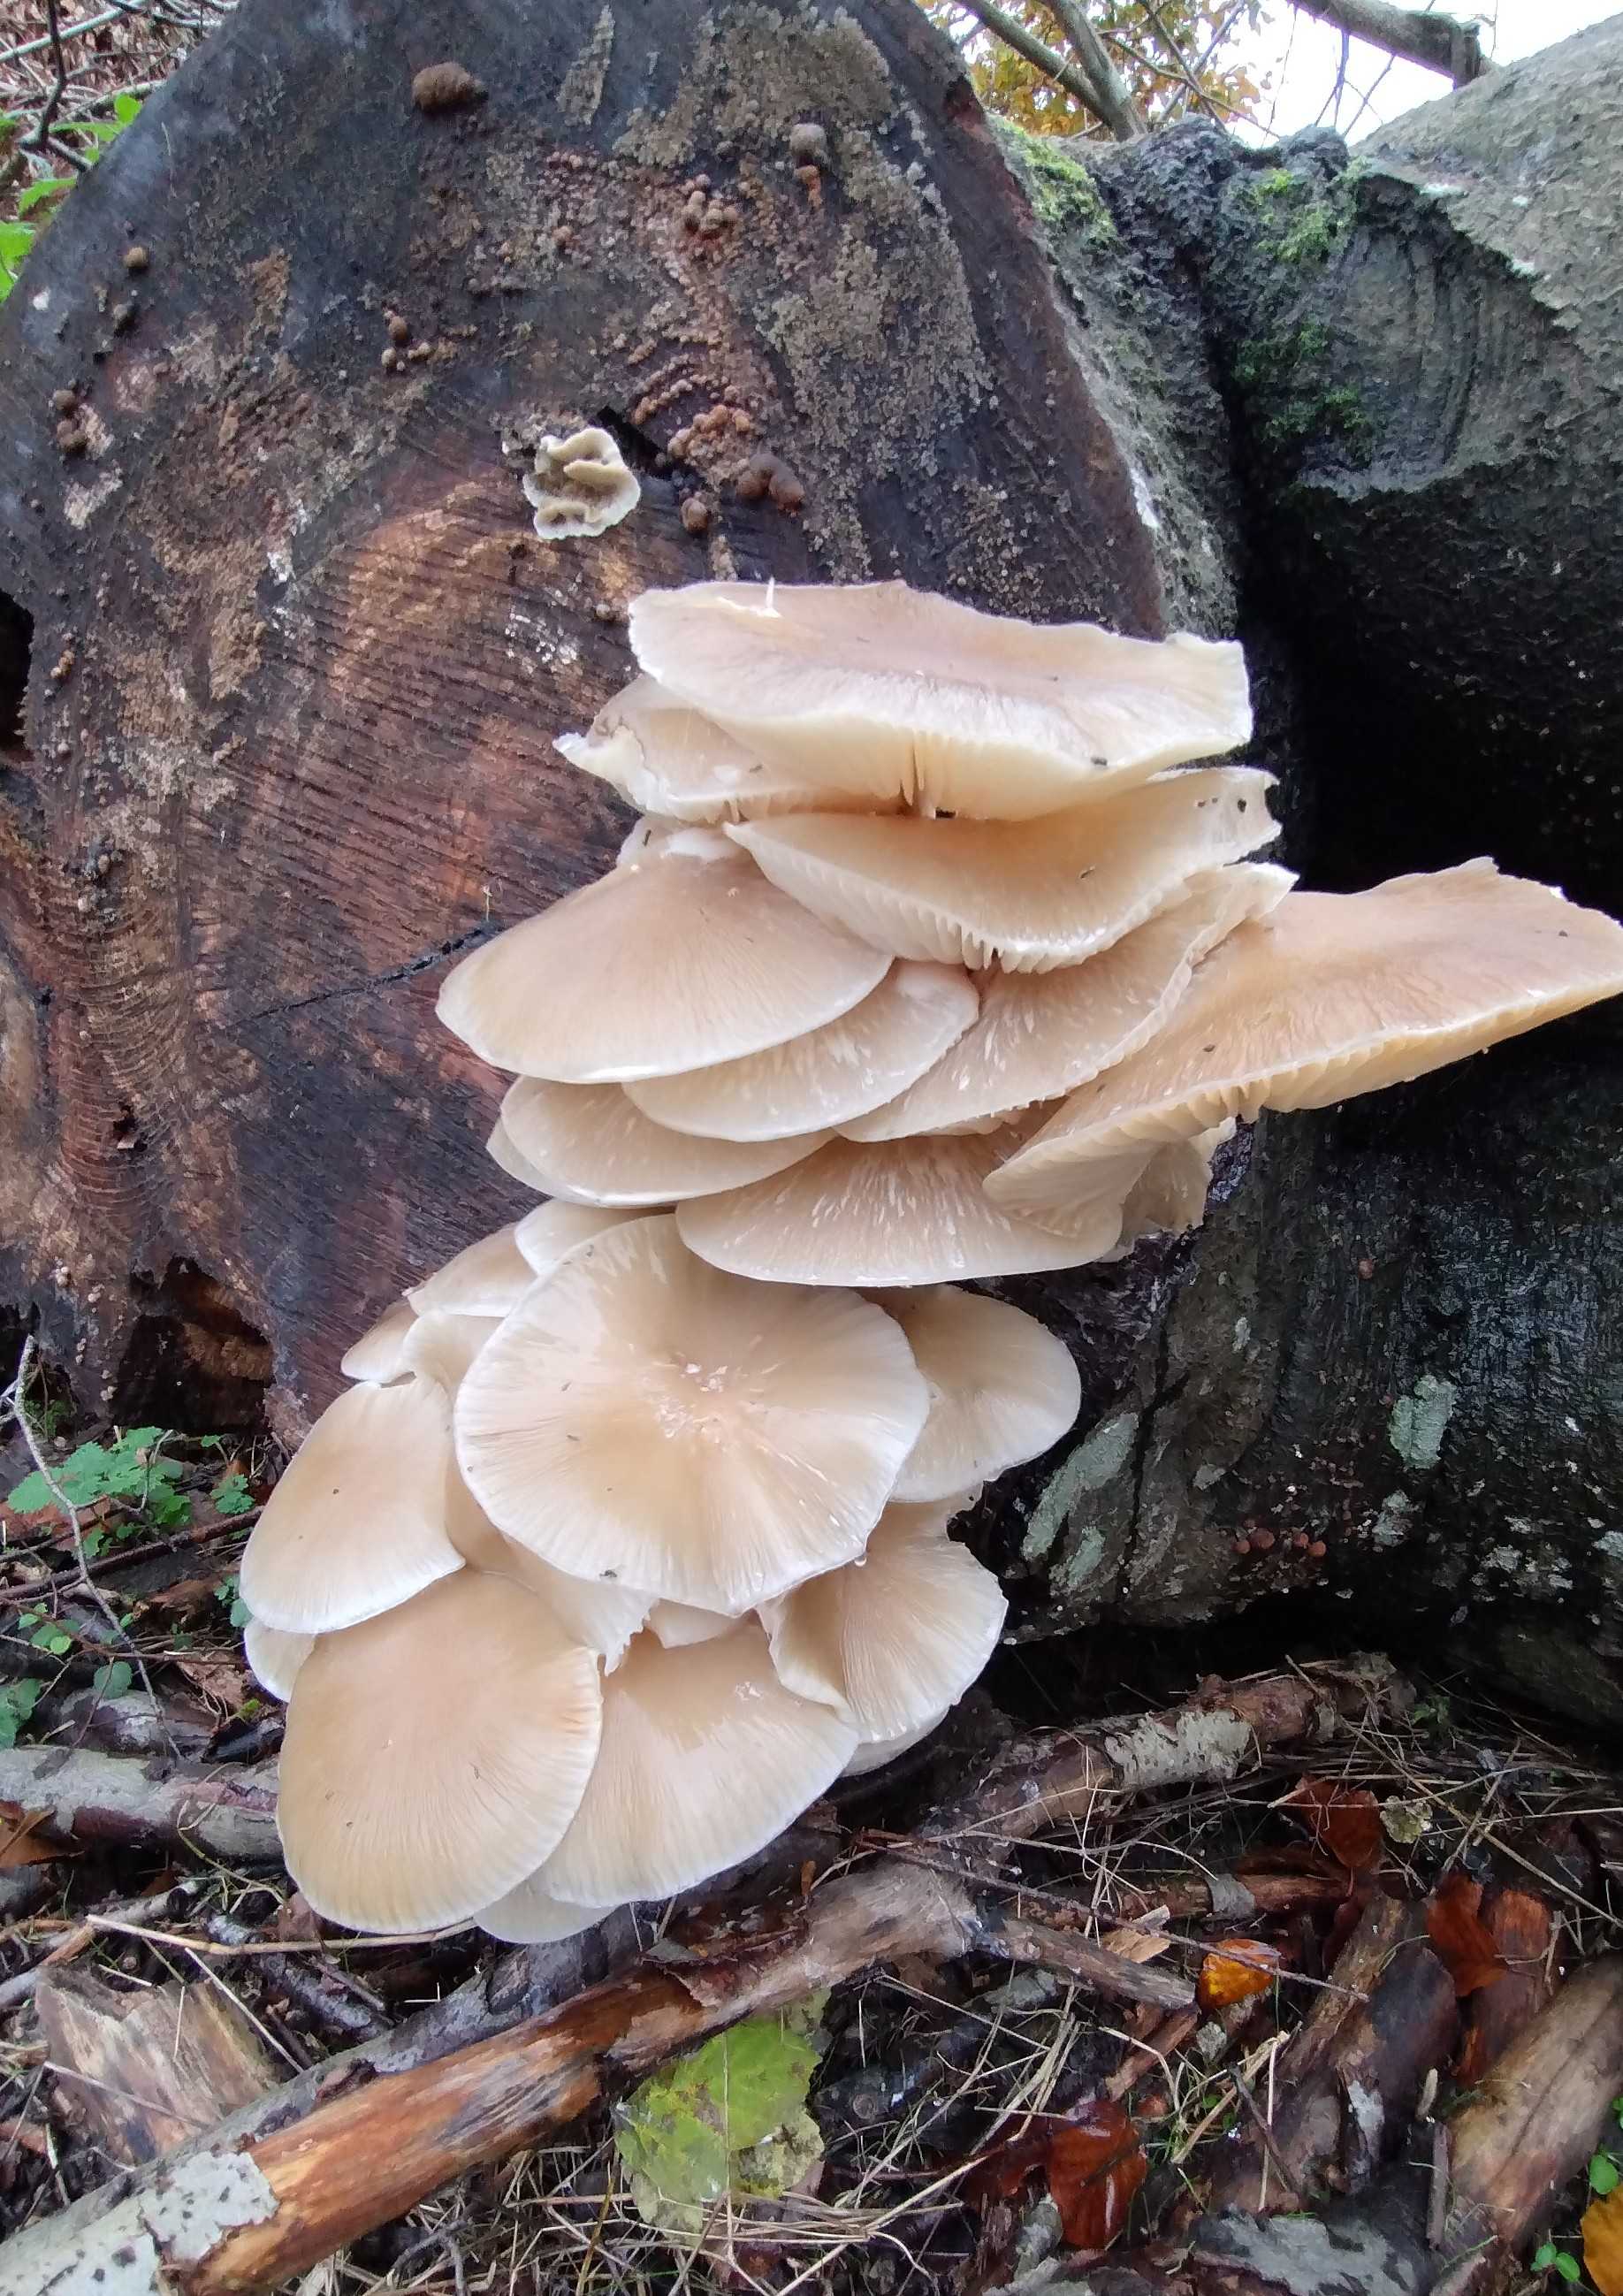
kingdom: Fungi
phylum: Basidiomycota
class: Agaricomycetes
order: Agaricales
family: Physalacriaceae
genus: Mucidula
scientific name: Mucidula mucida
